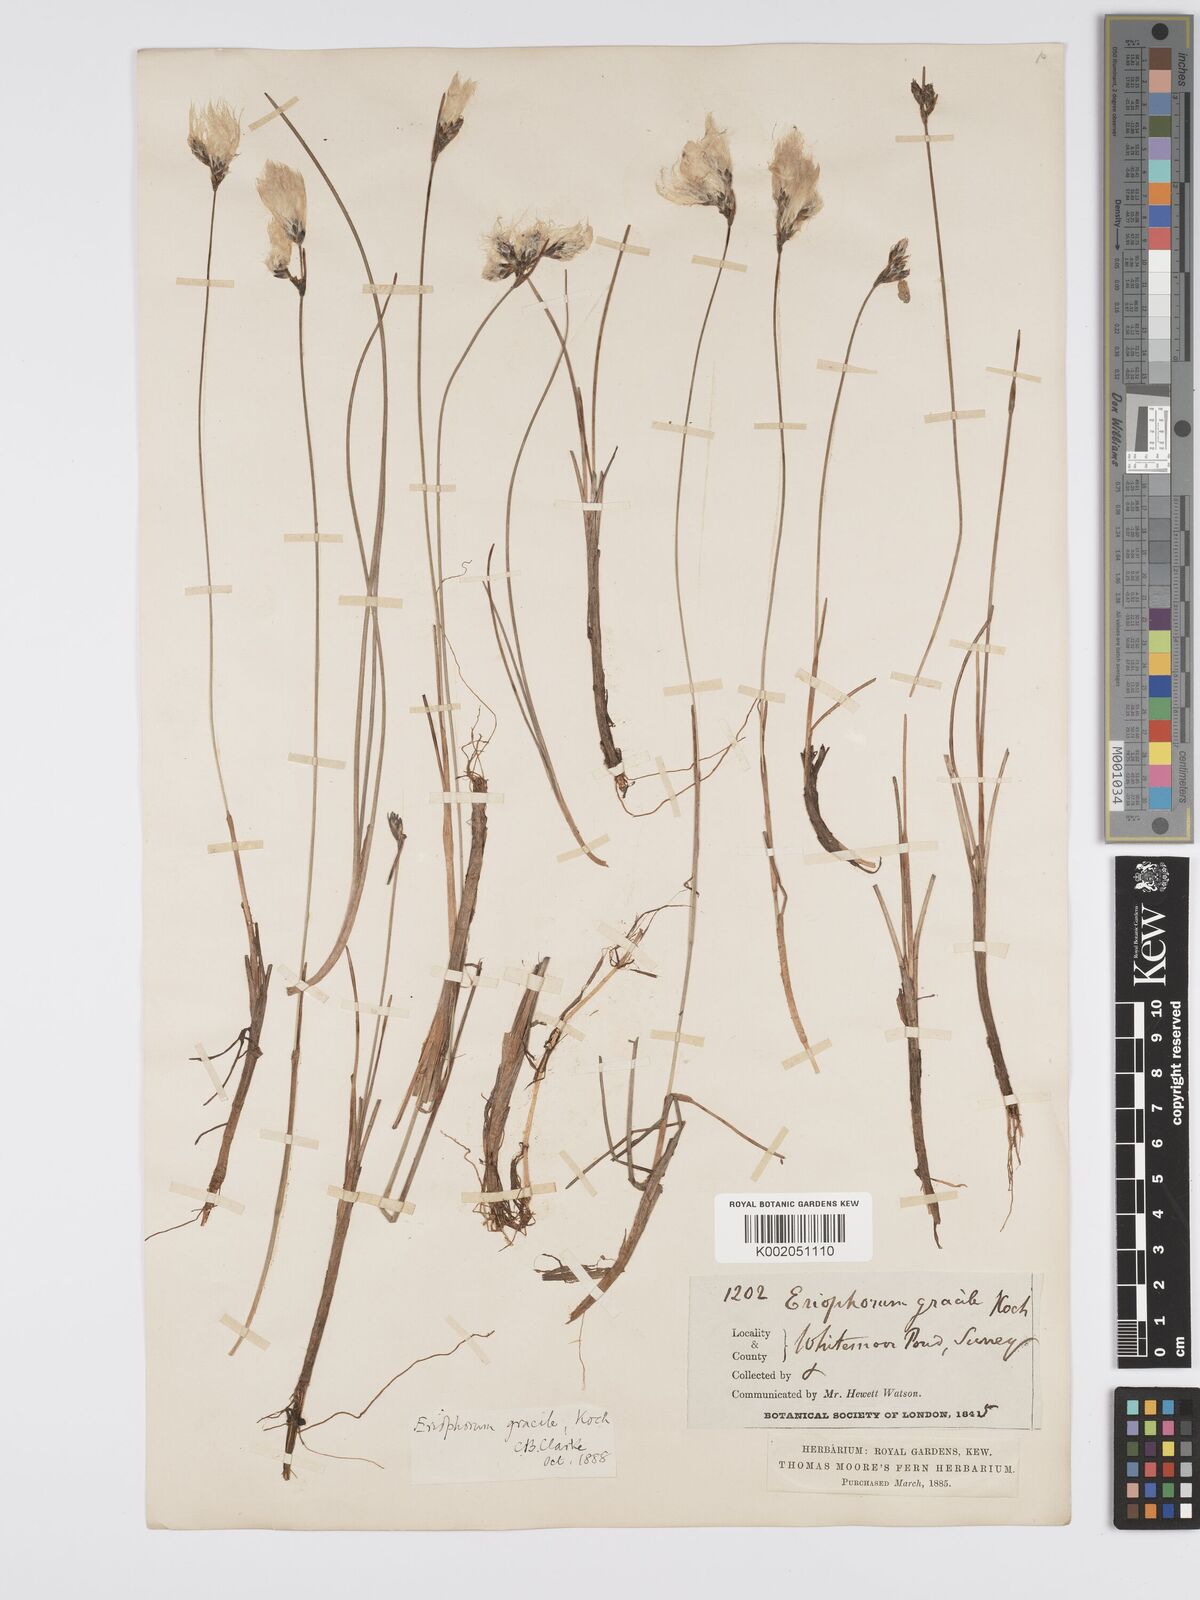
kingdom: Plantae
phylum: Tracheophyta
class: Liliopsida
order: Poales
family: Cyperaceae
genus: Eriophorum
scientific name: Eriophorum gracile
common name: Slender cottongrass
